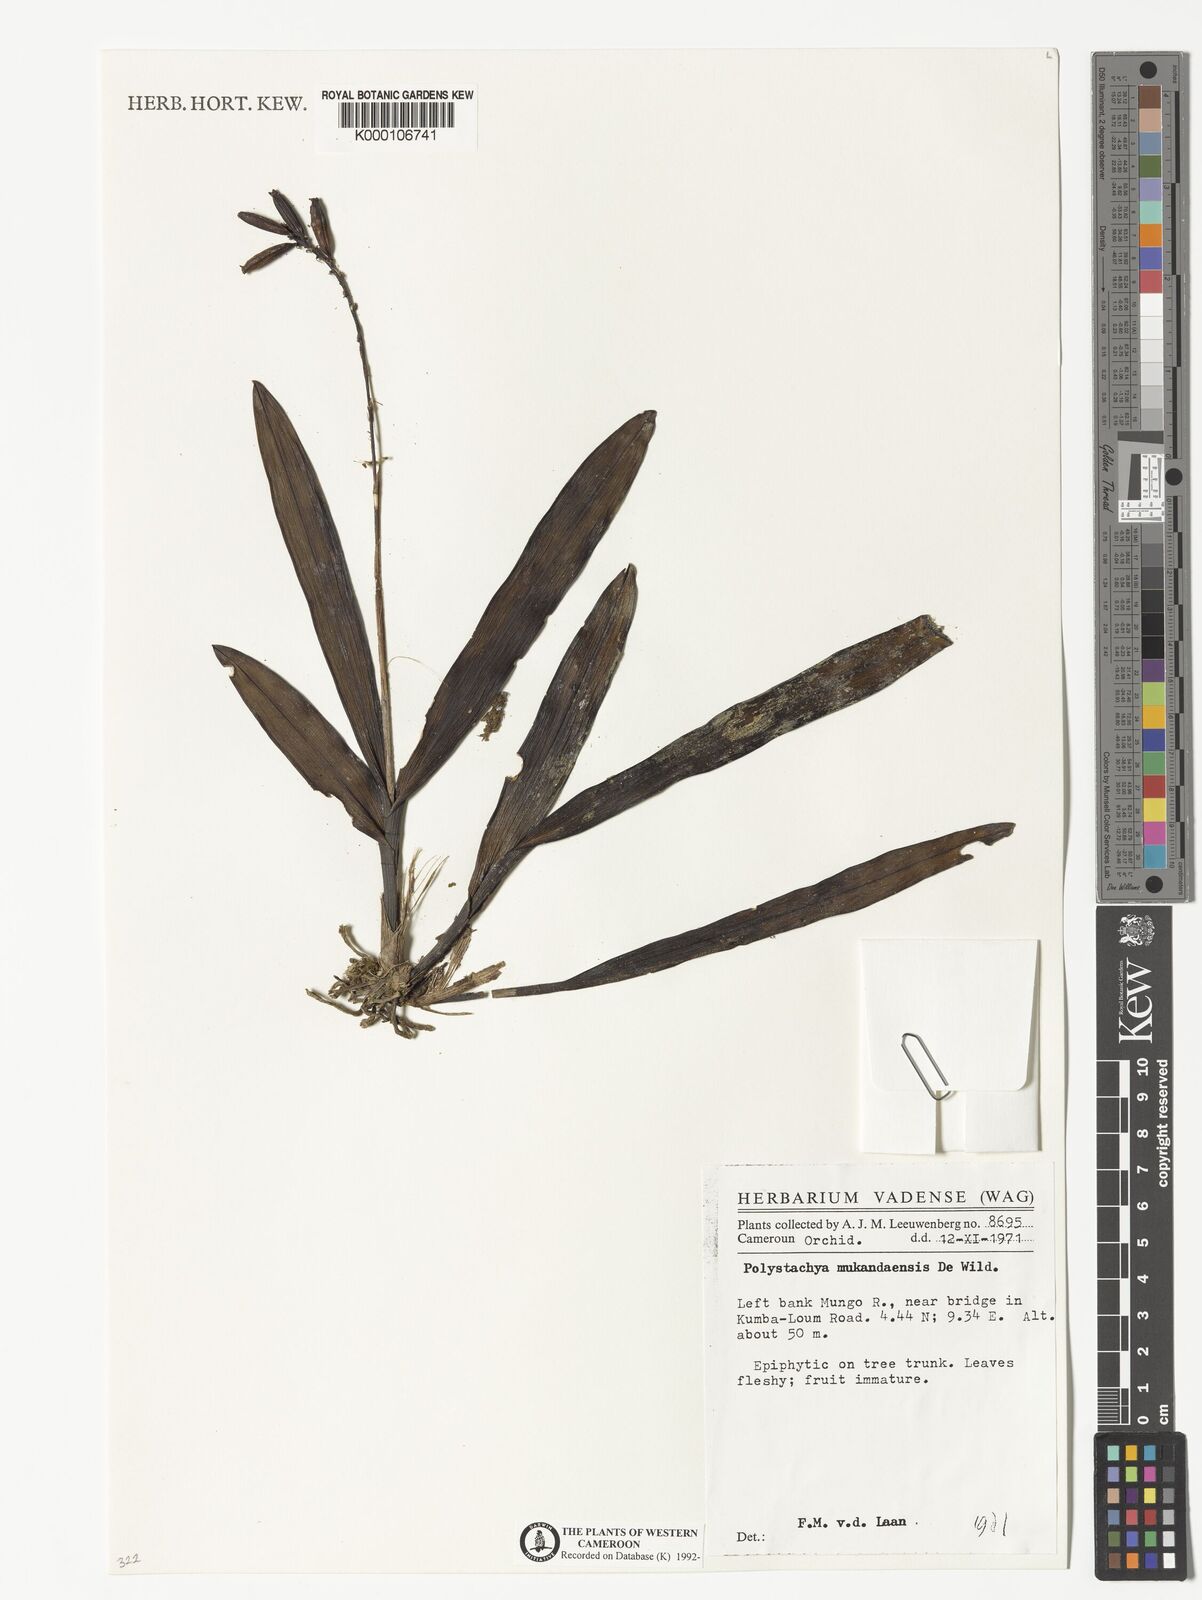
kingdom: Plantae
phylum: Tracheophyta
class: Liliopsida
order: Asparagales
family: Orchidaceae
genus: Polystachya
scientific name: Polystachya mukandaensis
